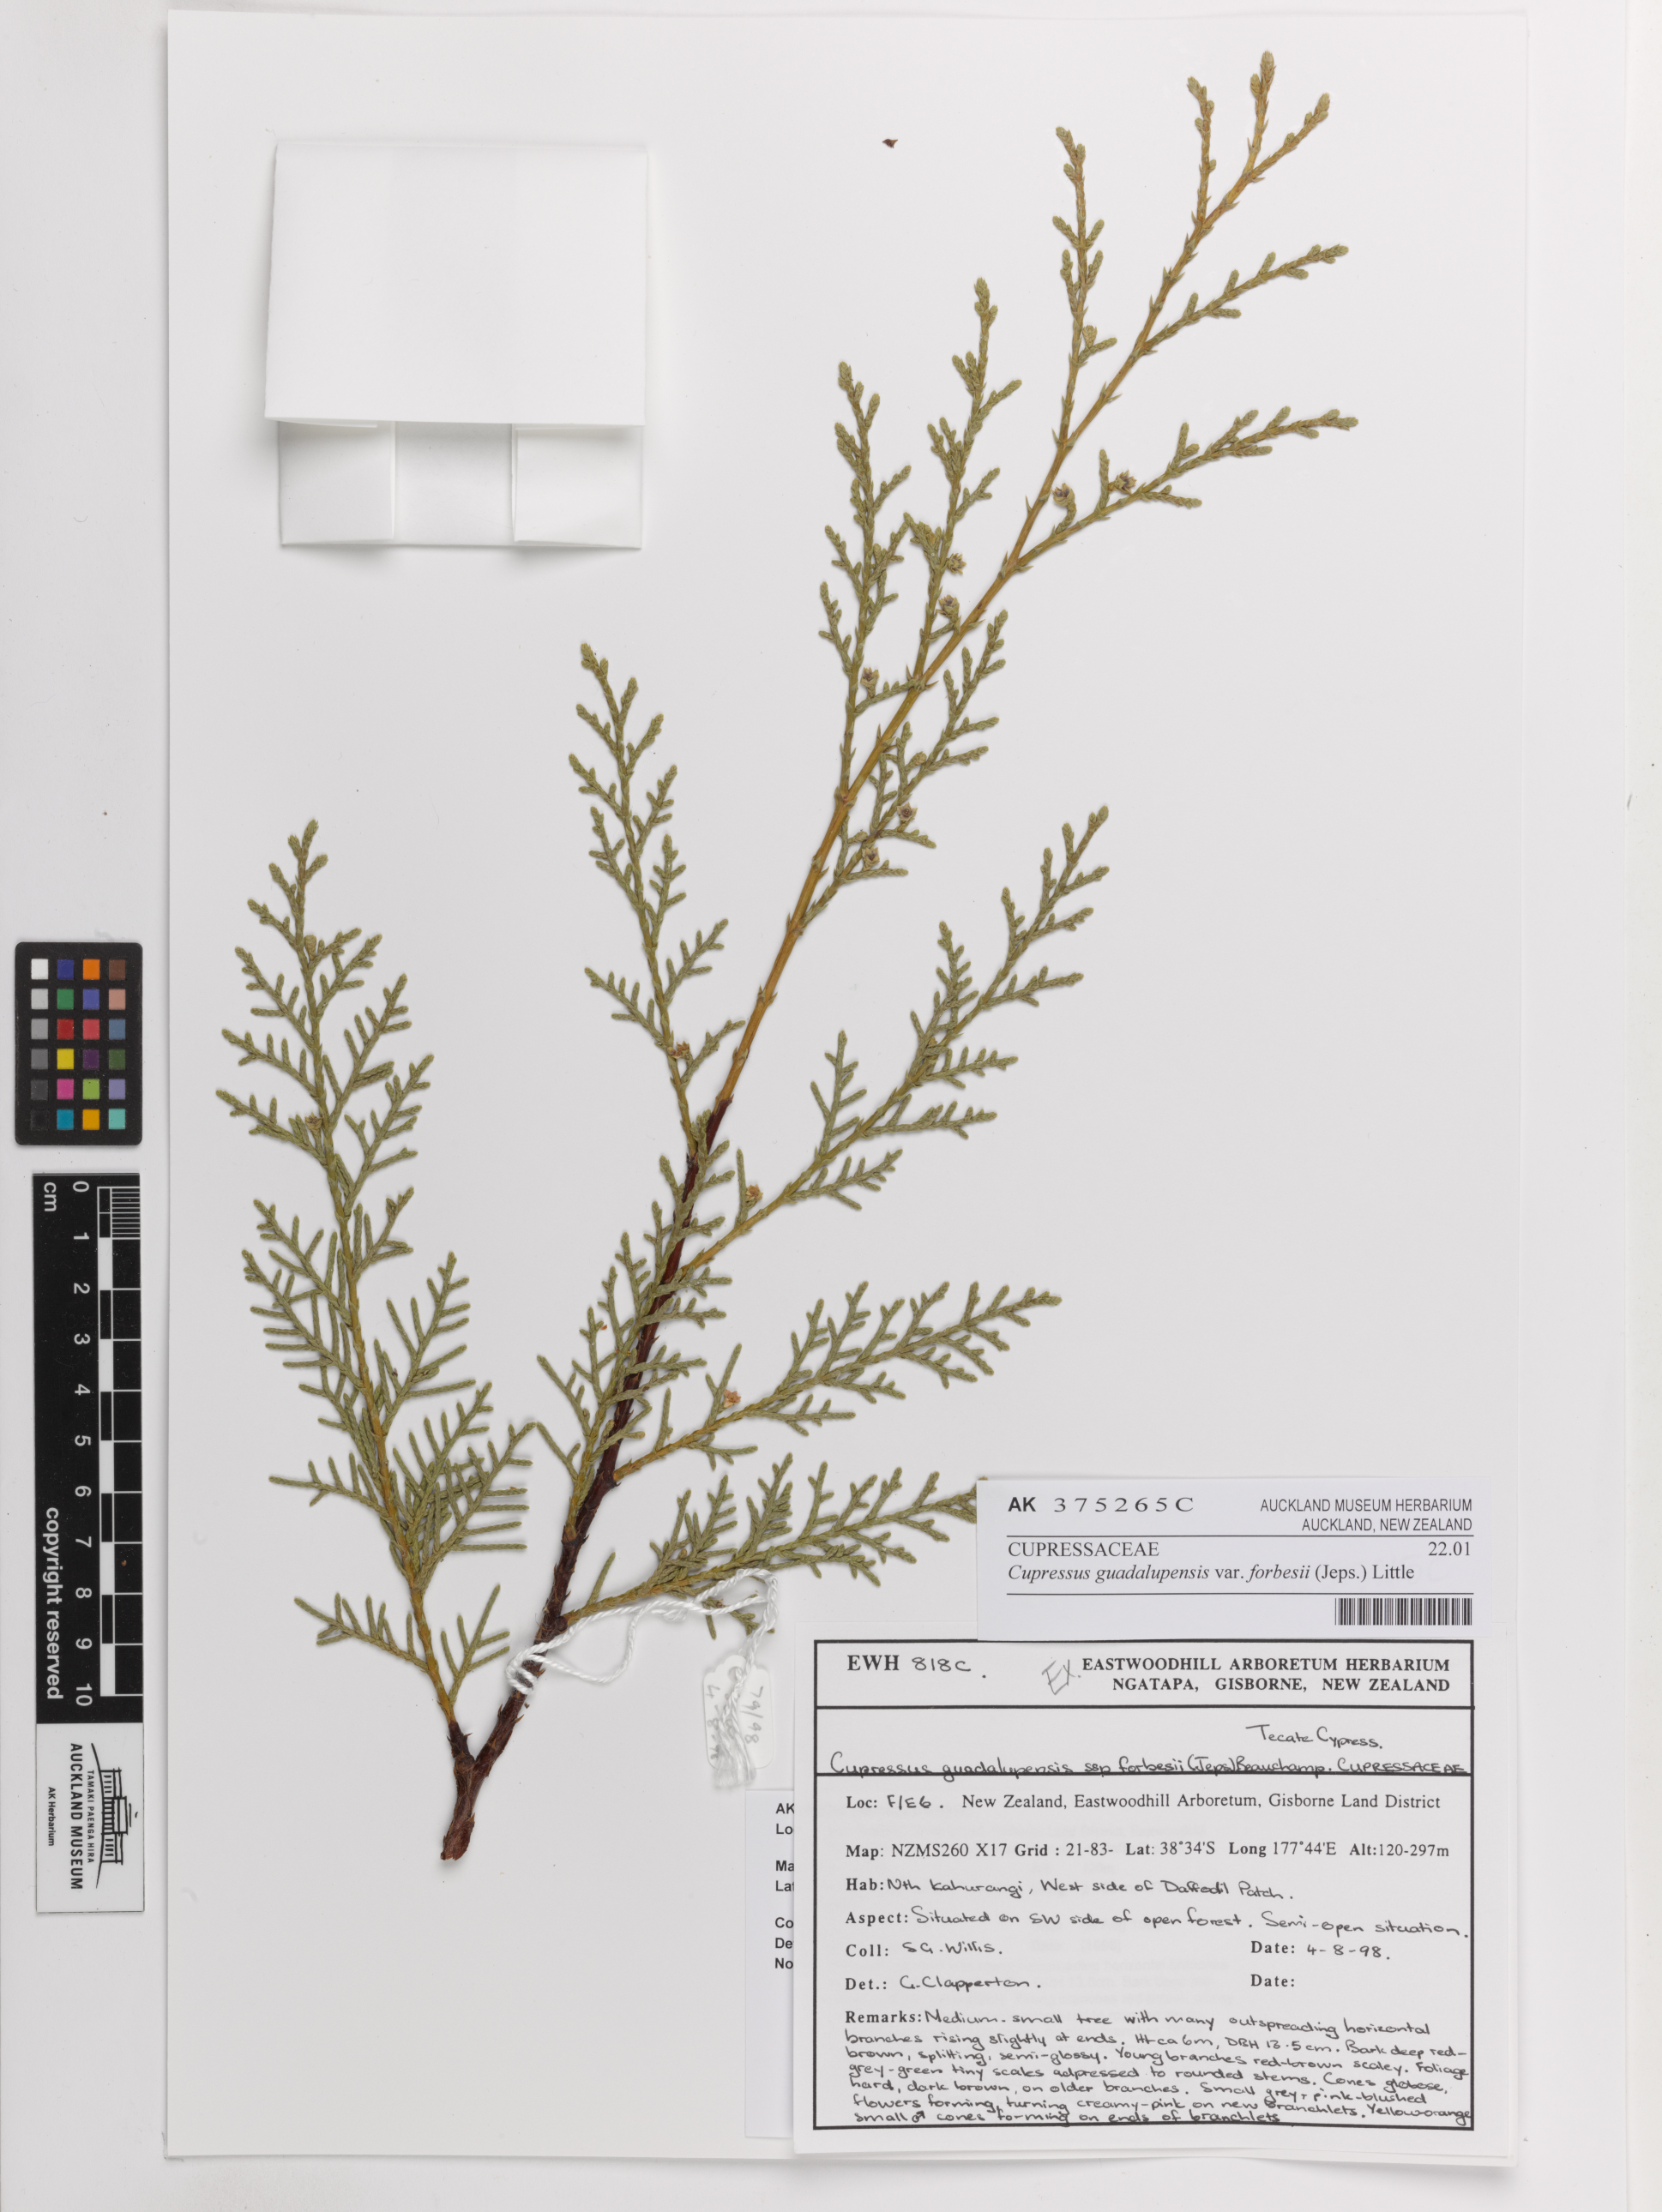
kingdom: Plantae
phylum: Tracheophyta
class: Pinopsida
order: Pinales
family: Cupressaceae
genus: Cupressus
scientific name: Cupressus guadalupensis
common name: Forbes cypress
